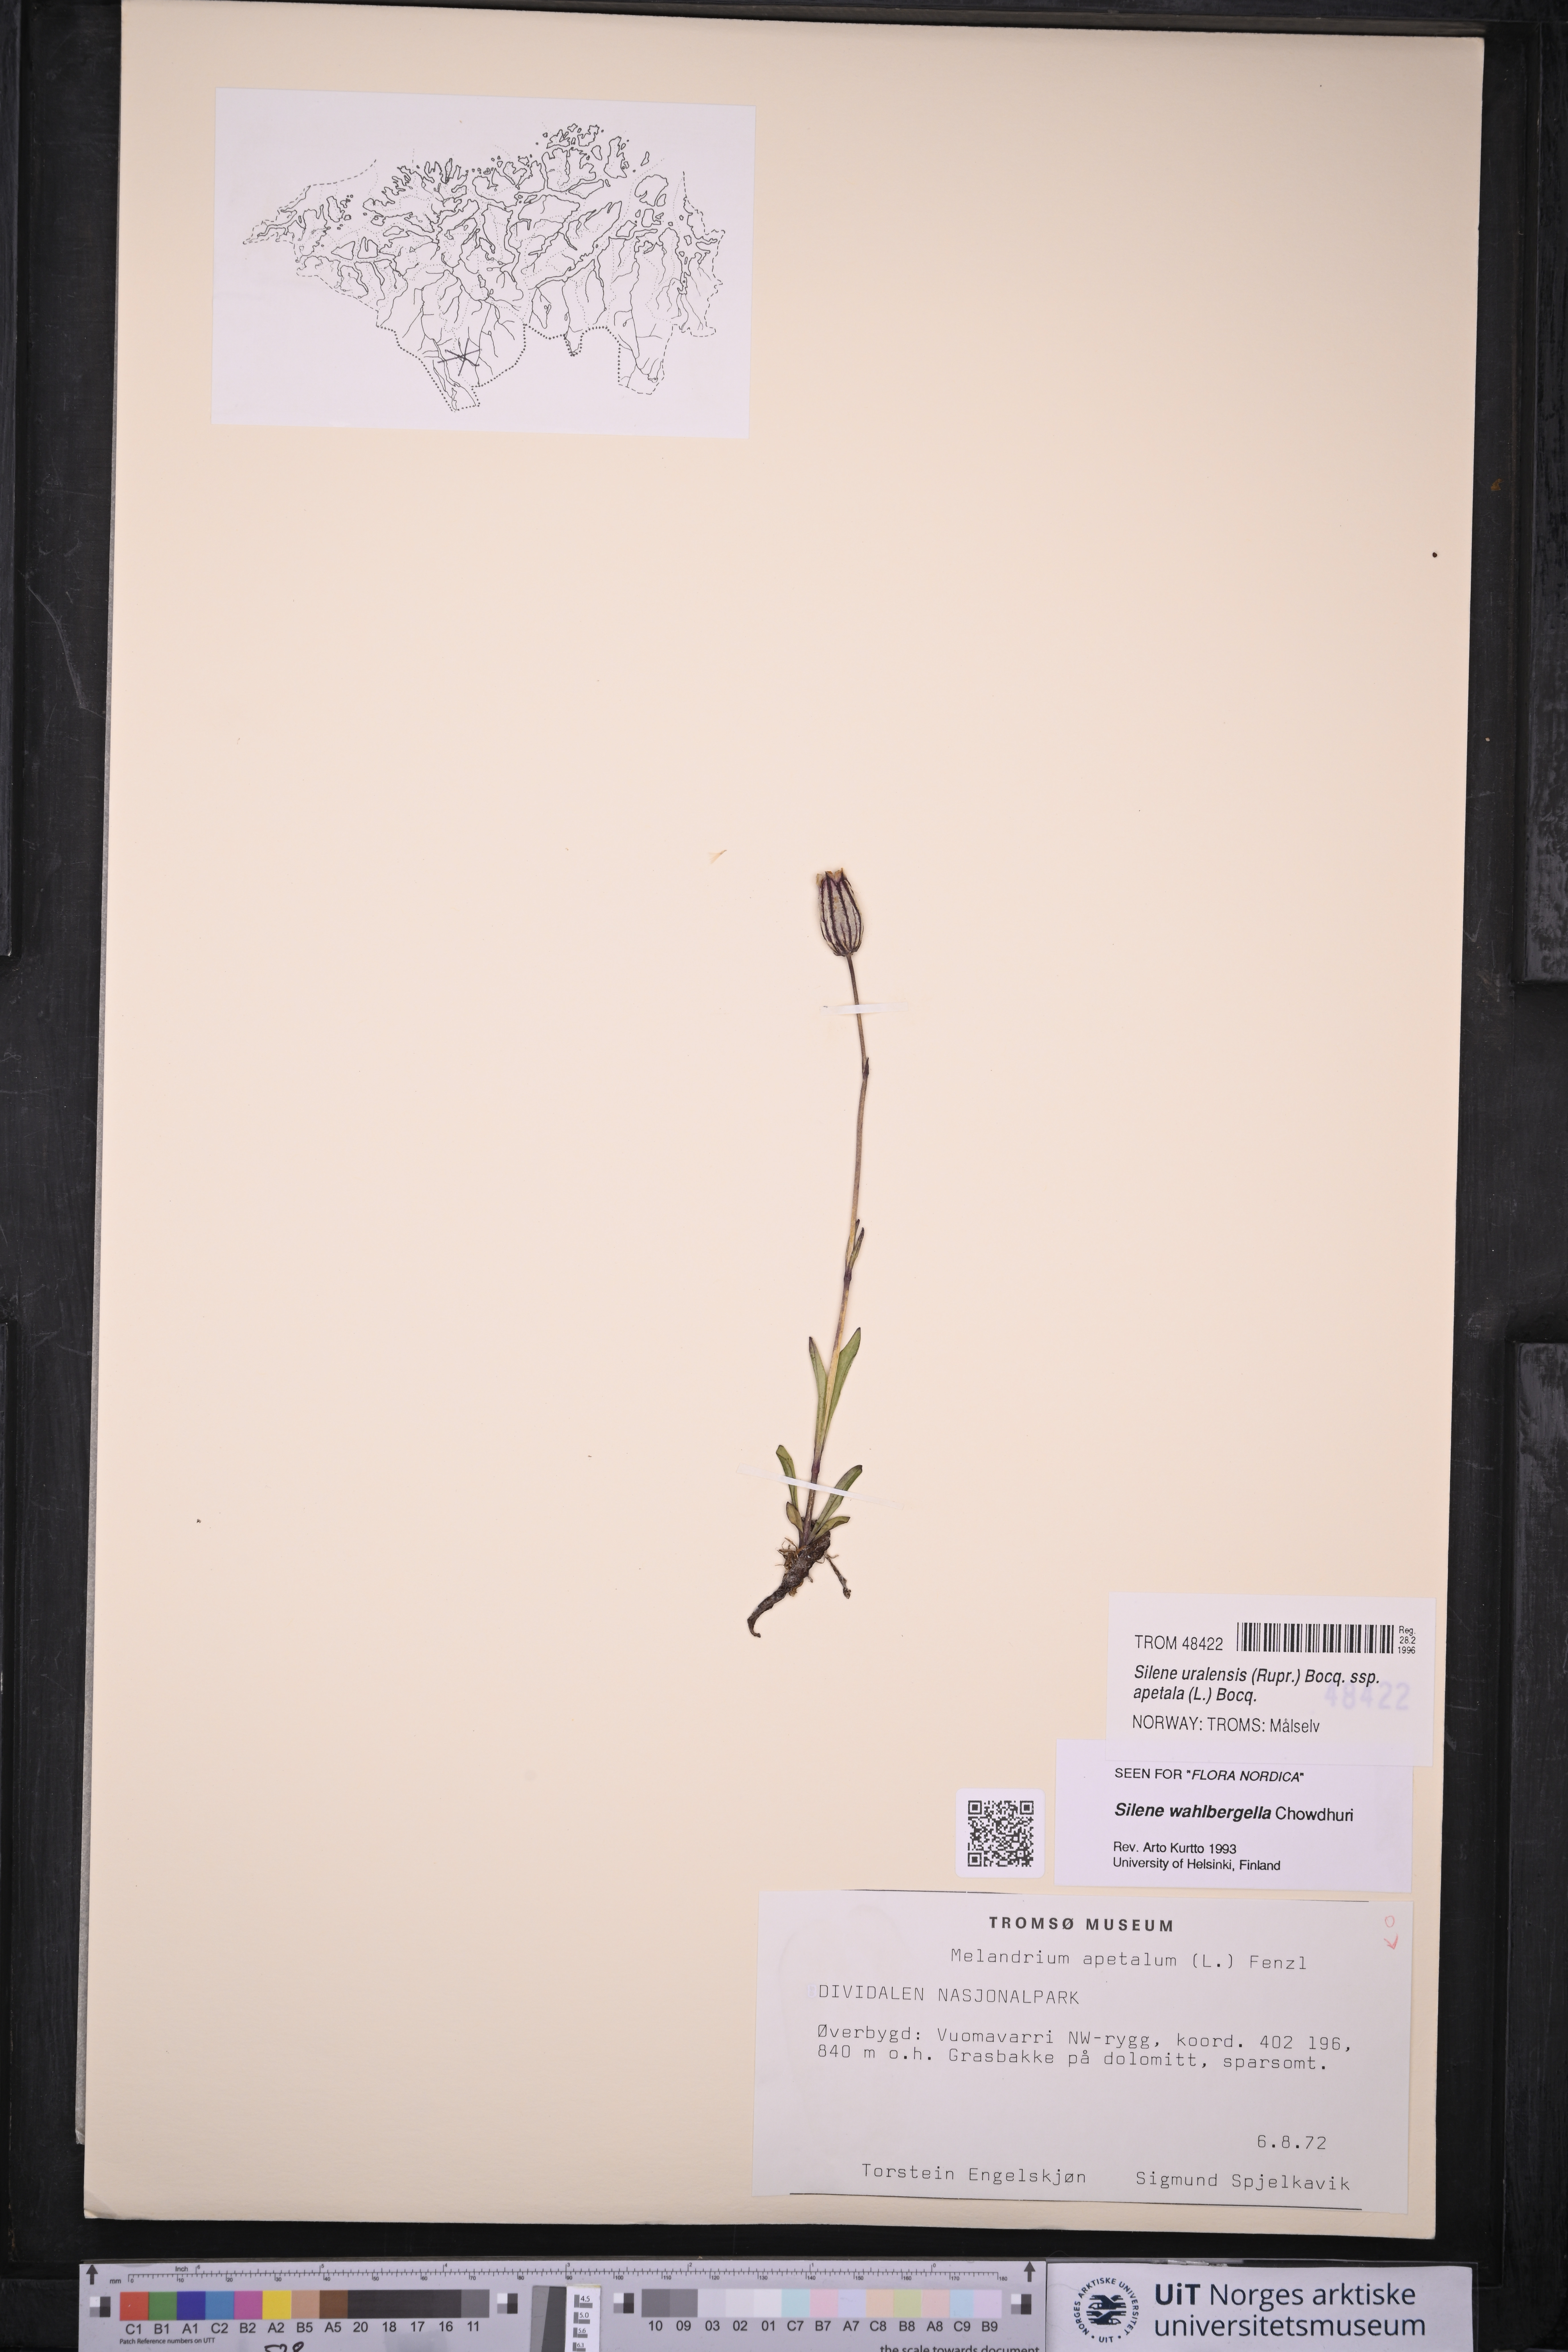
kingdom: Plantae
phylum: Tracheophyta
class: Magnoliopsida
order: Caryophyllales
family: Caryophyllaceae
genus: Silene
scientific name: Silene wahlbergella
